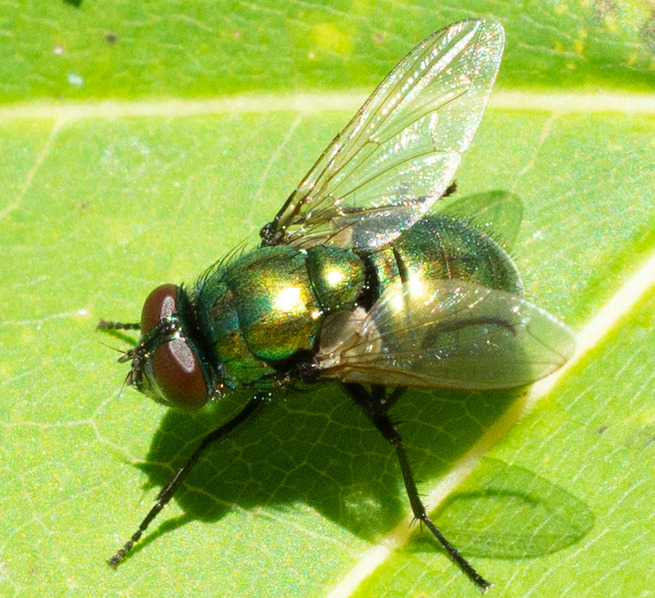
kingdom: Animalia
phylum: Arthropoda
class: Insecta
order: Diptera
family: Muscidae
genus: Neomyia
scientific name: Neomyia cornicina
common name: Grøn kokasseflue
